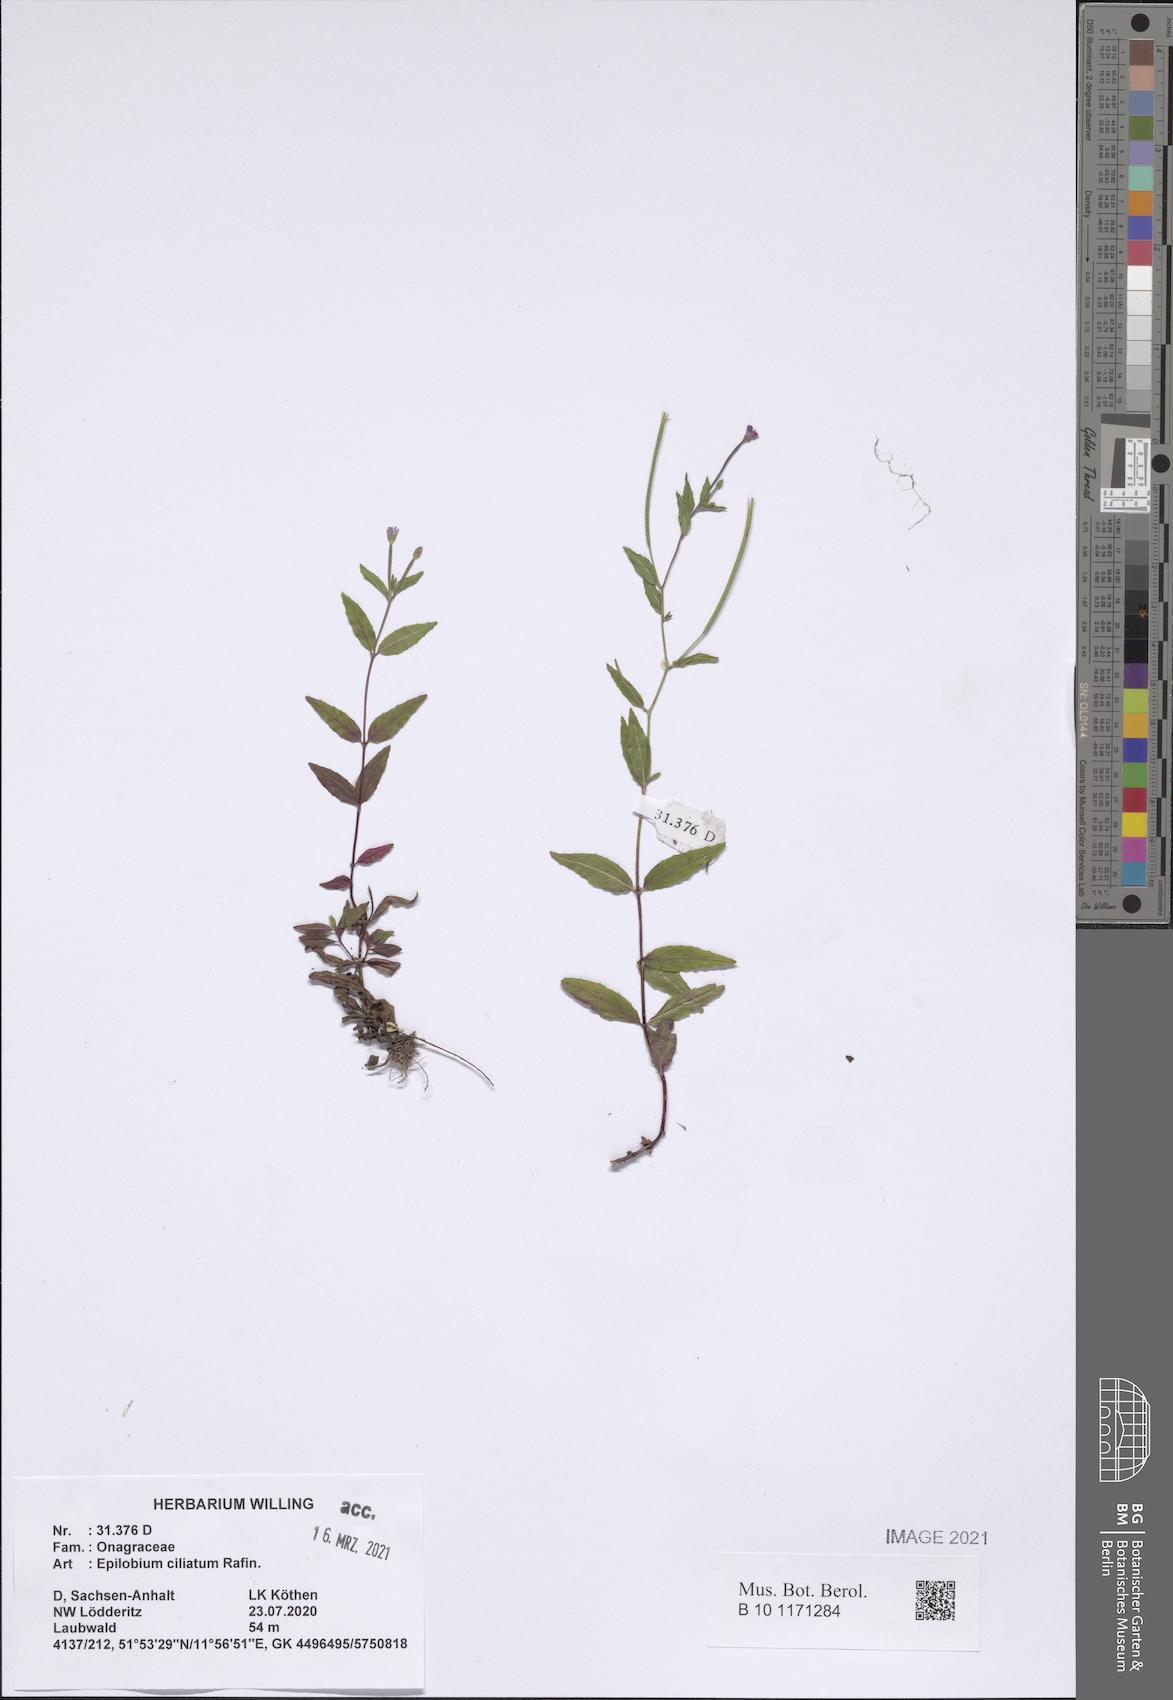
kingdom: Plantae
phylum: Tracheophyta
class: Magnoliopsida
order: Myrtales
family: Onagraceae
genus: Epilobium
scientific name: Epilobium ciliatum
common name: American willowherb
